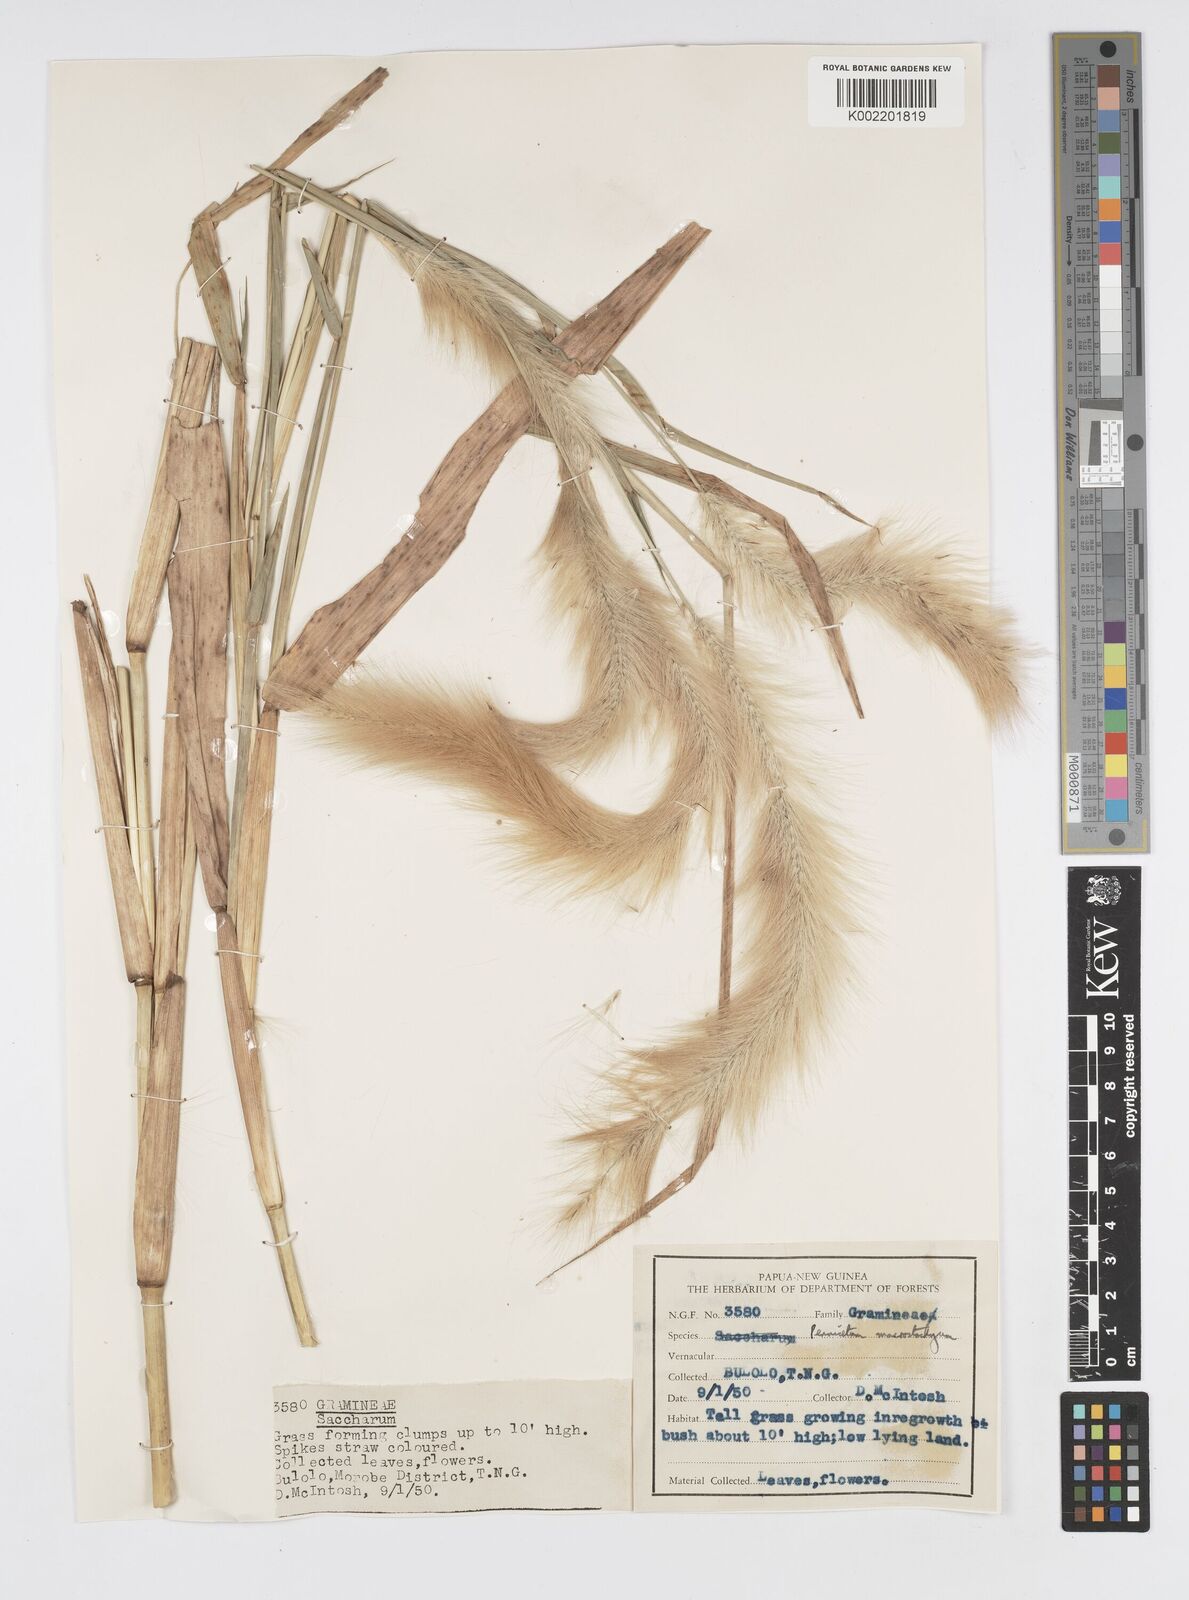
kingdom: Plantae
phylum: Tracheophyta
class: Liliopsida
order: Poales
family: Poaceae
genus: Cenchrus
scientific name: Cenchrus purpureus
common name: Elephant grass
